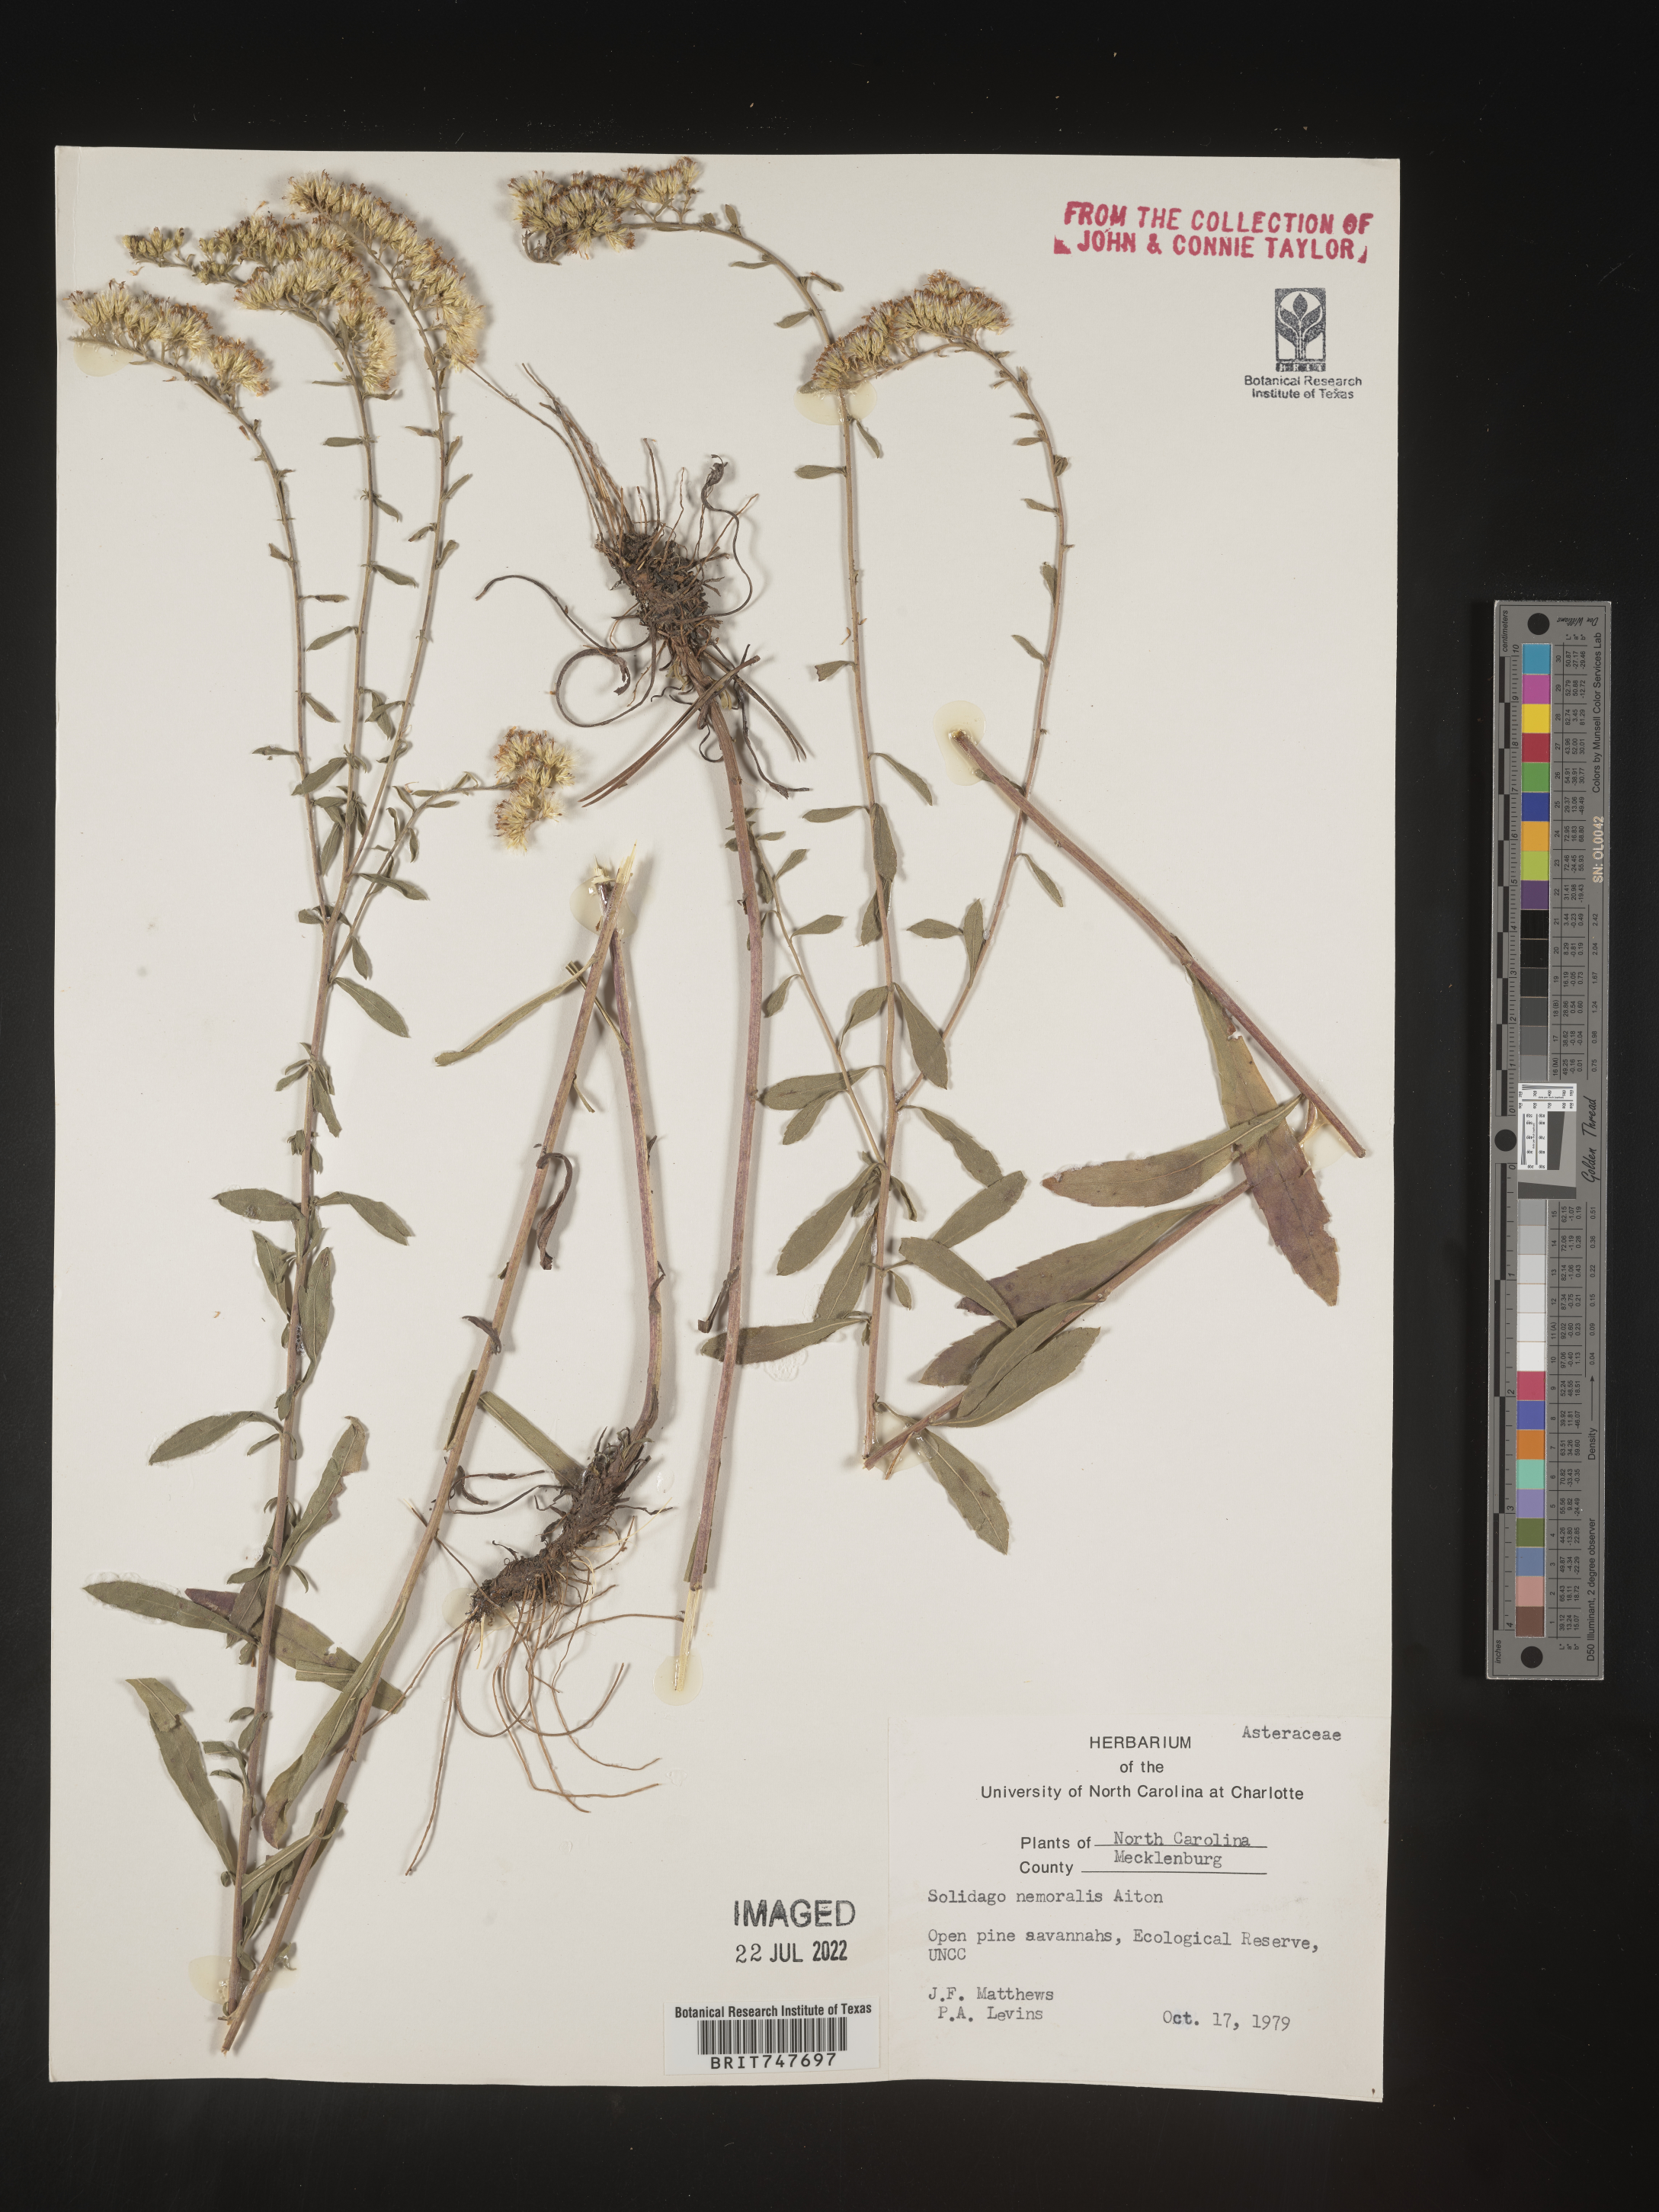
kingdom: Plantae
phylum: Tracheophyta
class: Magnoliopsida
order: Asterales
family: Asteraceae
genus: Solidago
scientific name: Solidago nemoralis
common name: Grey goldenrod
